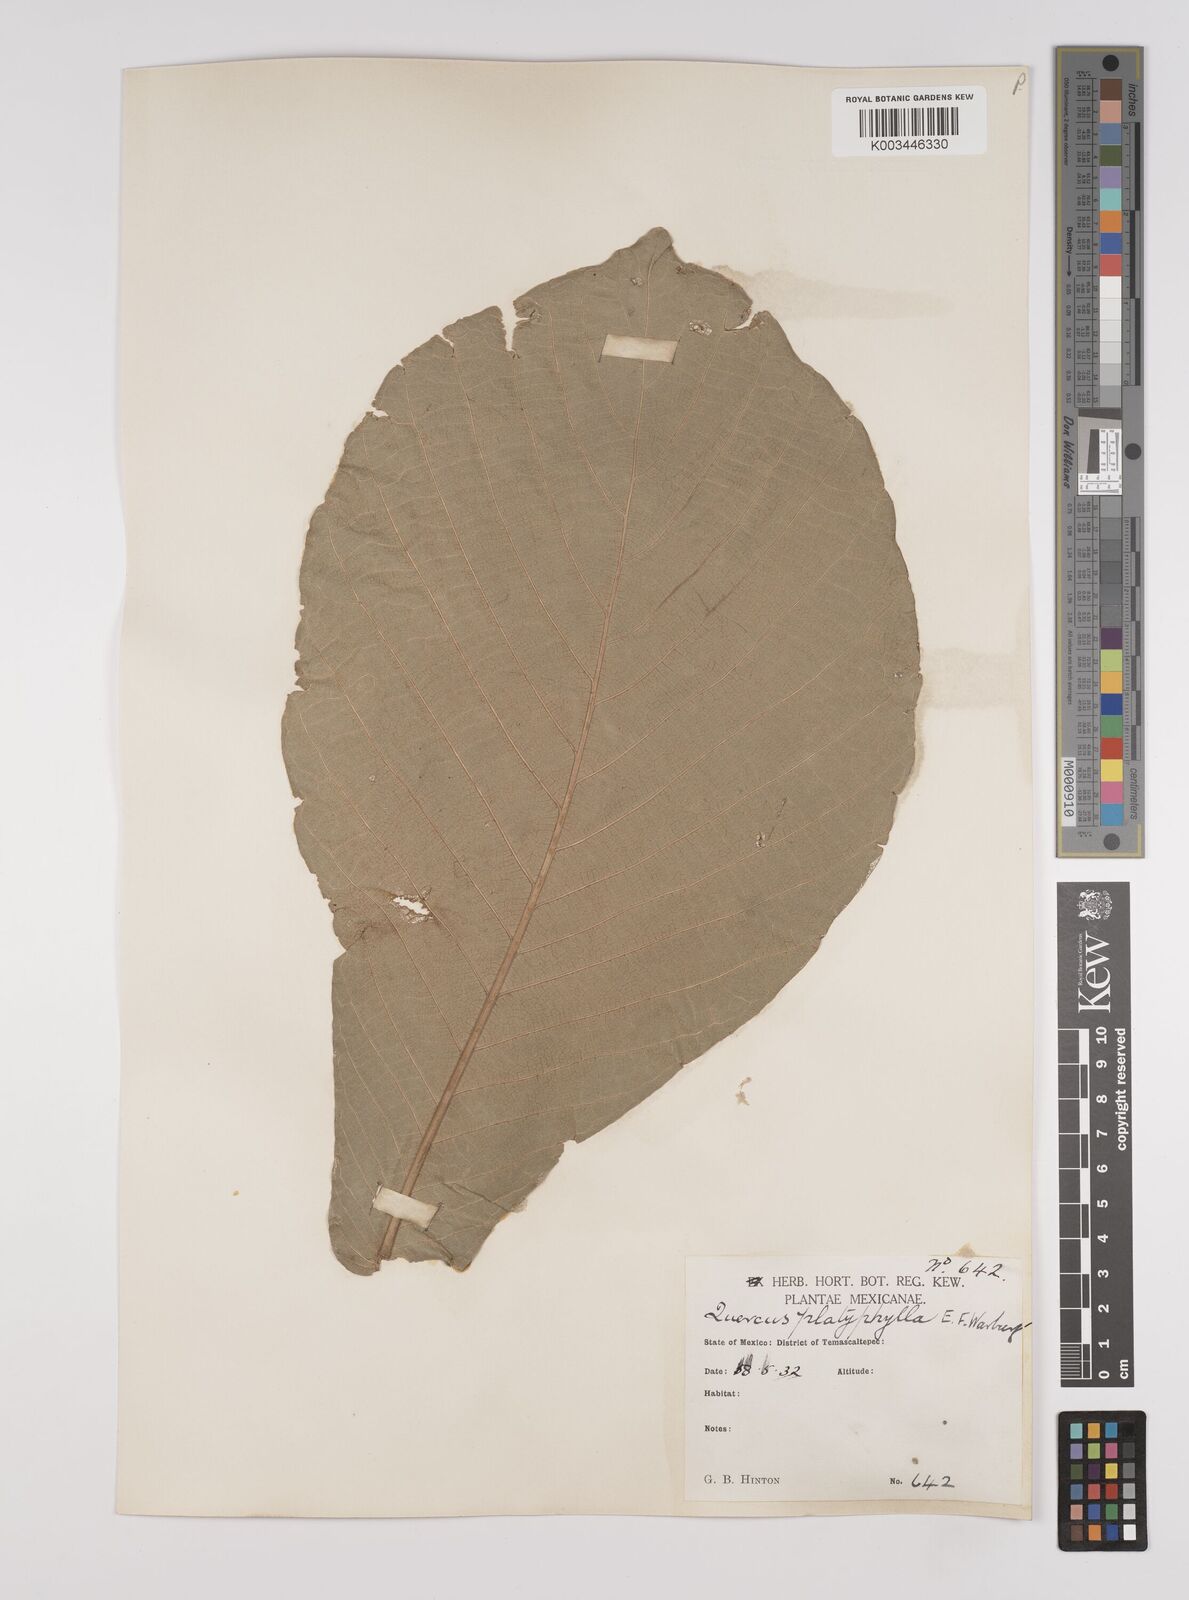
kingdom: Plantae
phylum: Tracheophyta
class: Magnoliopsida
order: Fagales
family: Fagaceae
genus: Quercus
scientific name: Quercus
